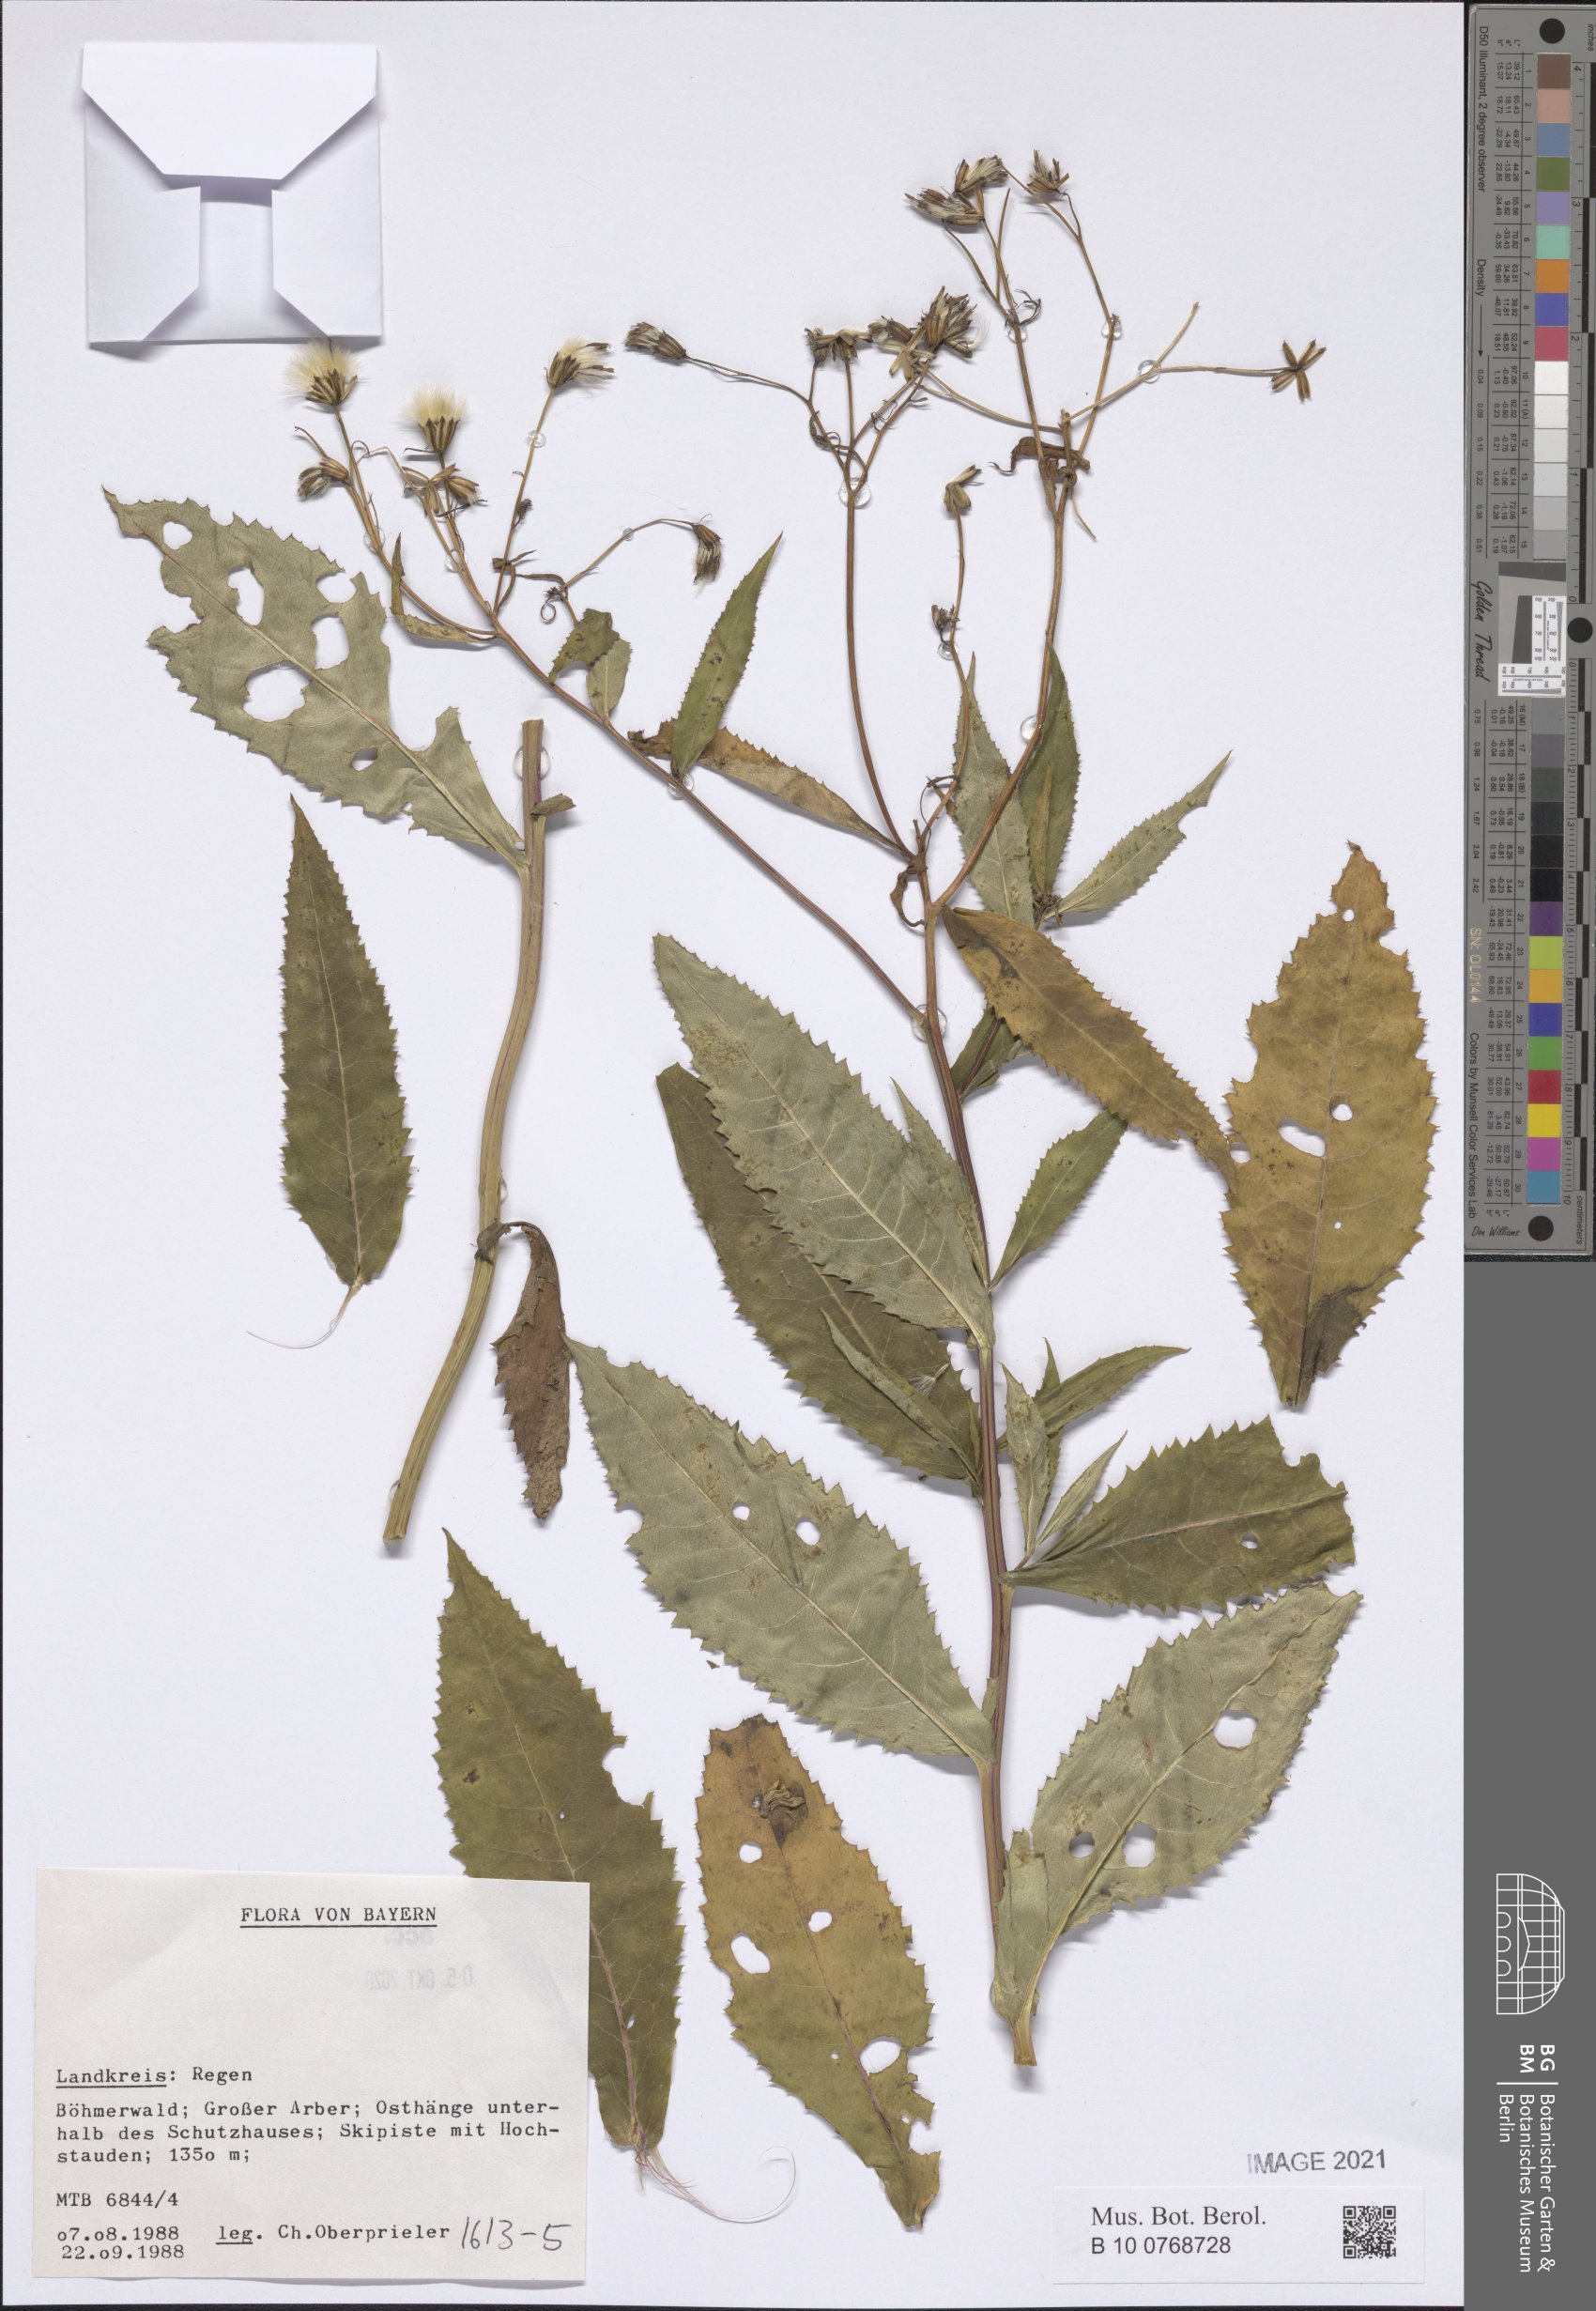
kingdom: Plantae
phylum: Tracheophyta
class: Magnoliopsida
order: Asterales
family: Asteraceae
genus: Senecio
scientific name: Senecio
